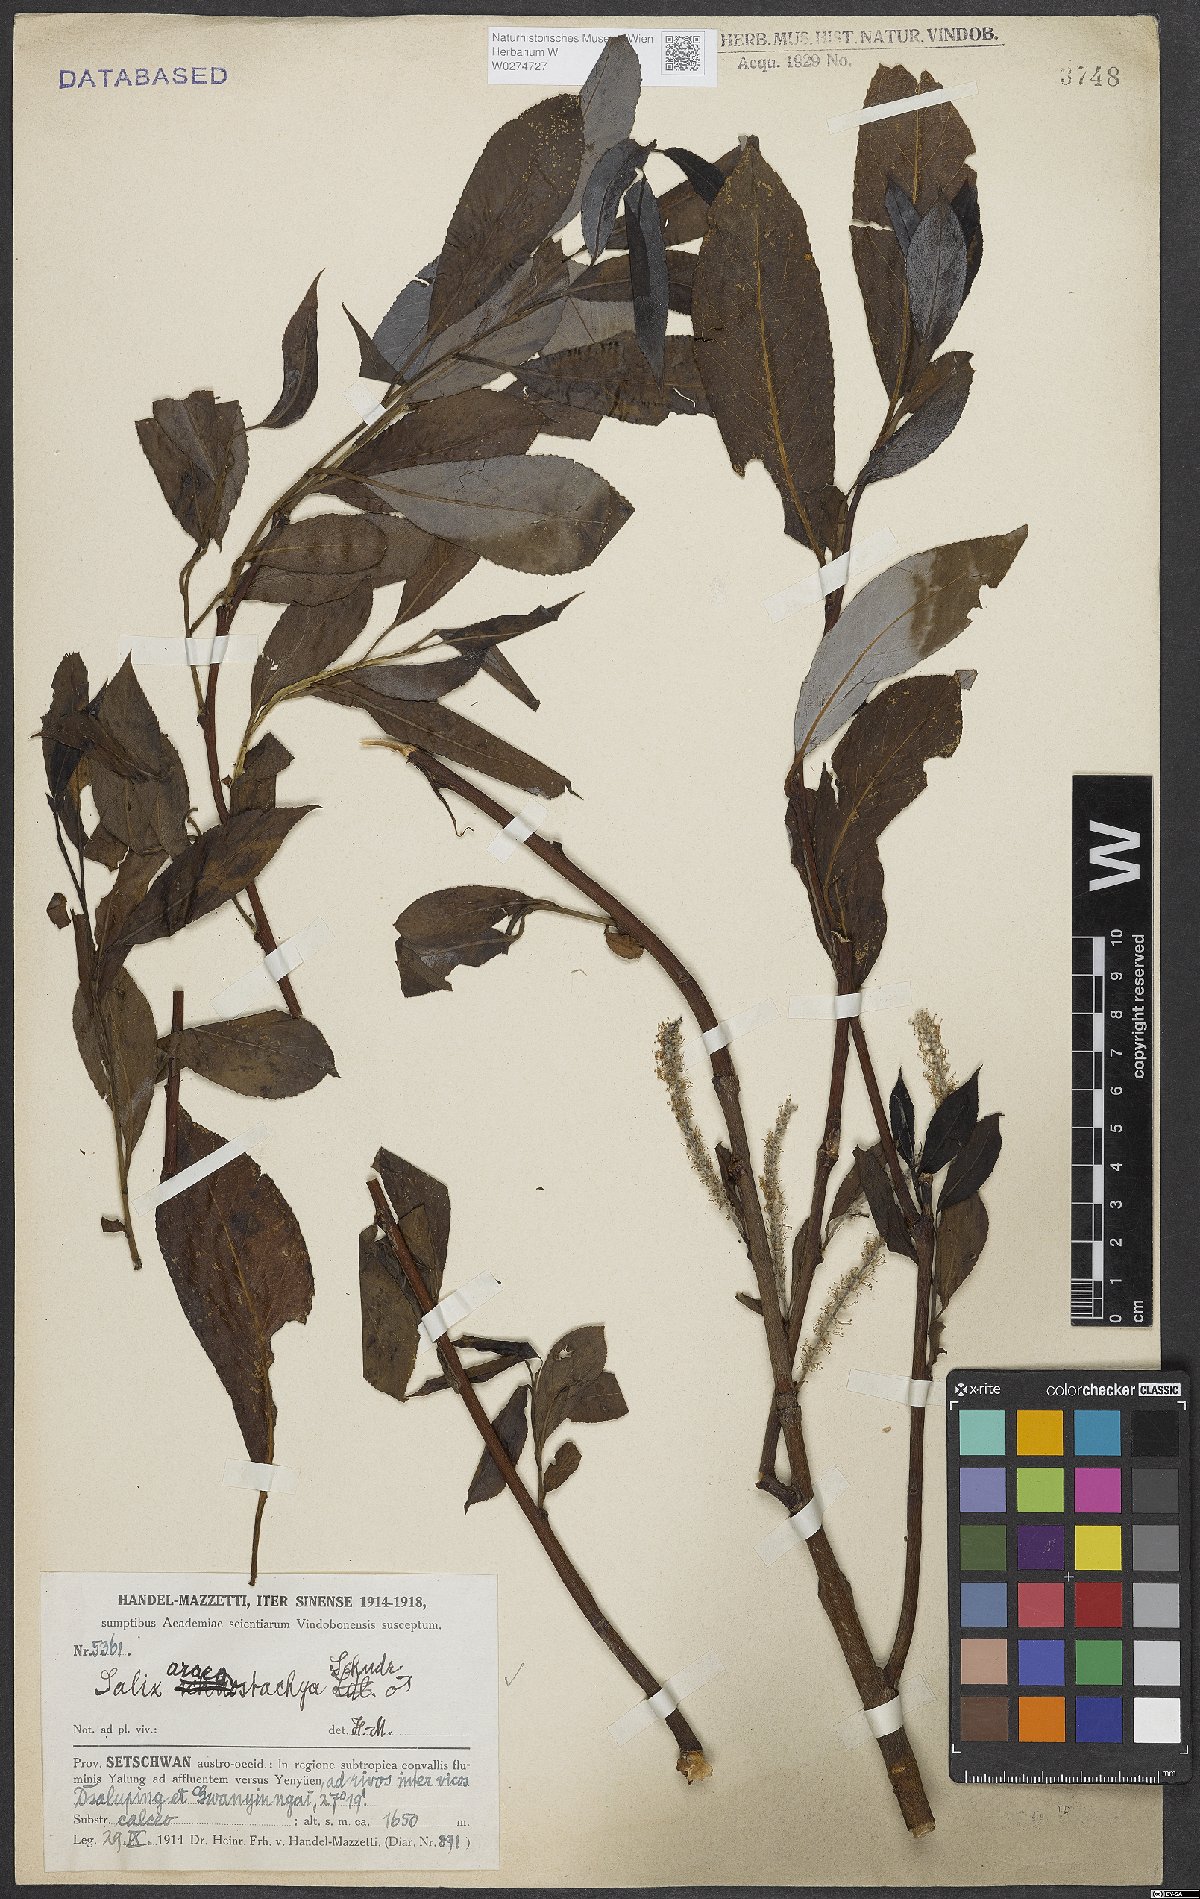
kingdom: Plantae
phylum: Tracheophyta
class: Magnoliopsida
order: Malpighiales
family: Salicaceae
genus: Salix
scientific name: Salix tetrasperma
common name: Indian willow
